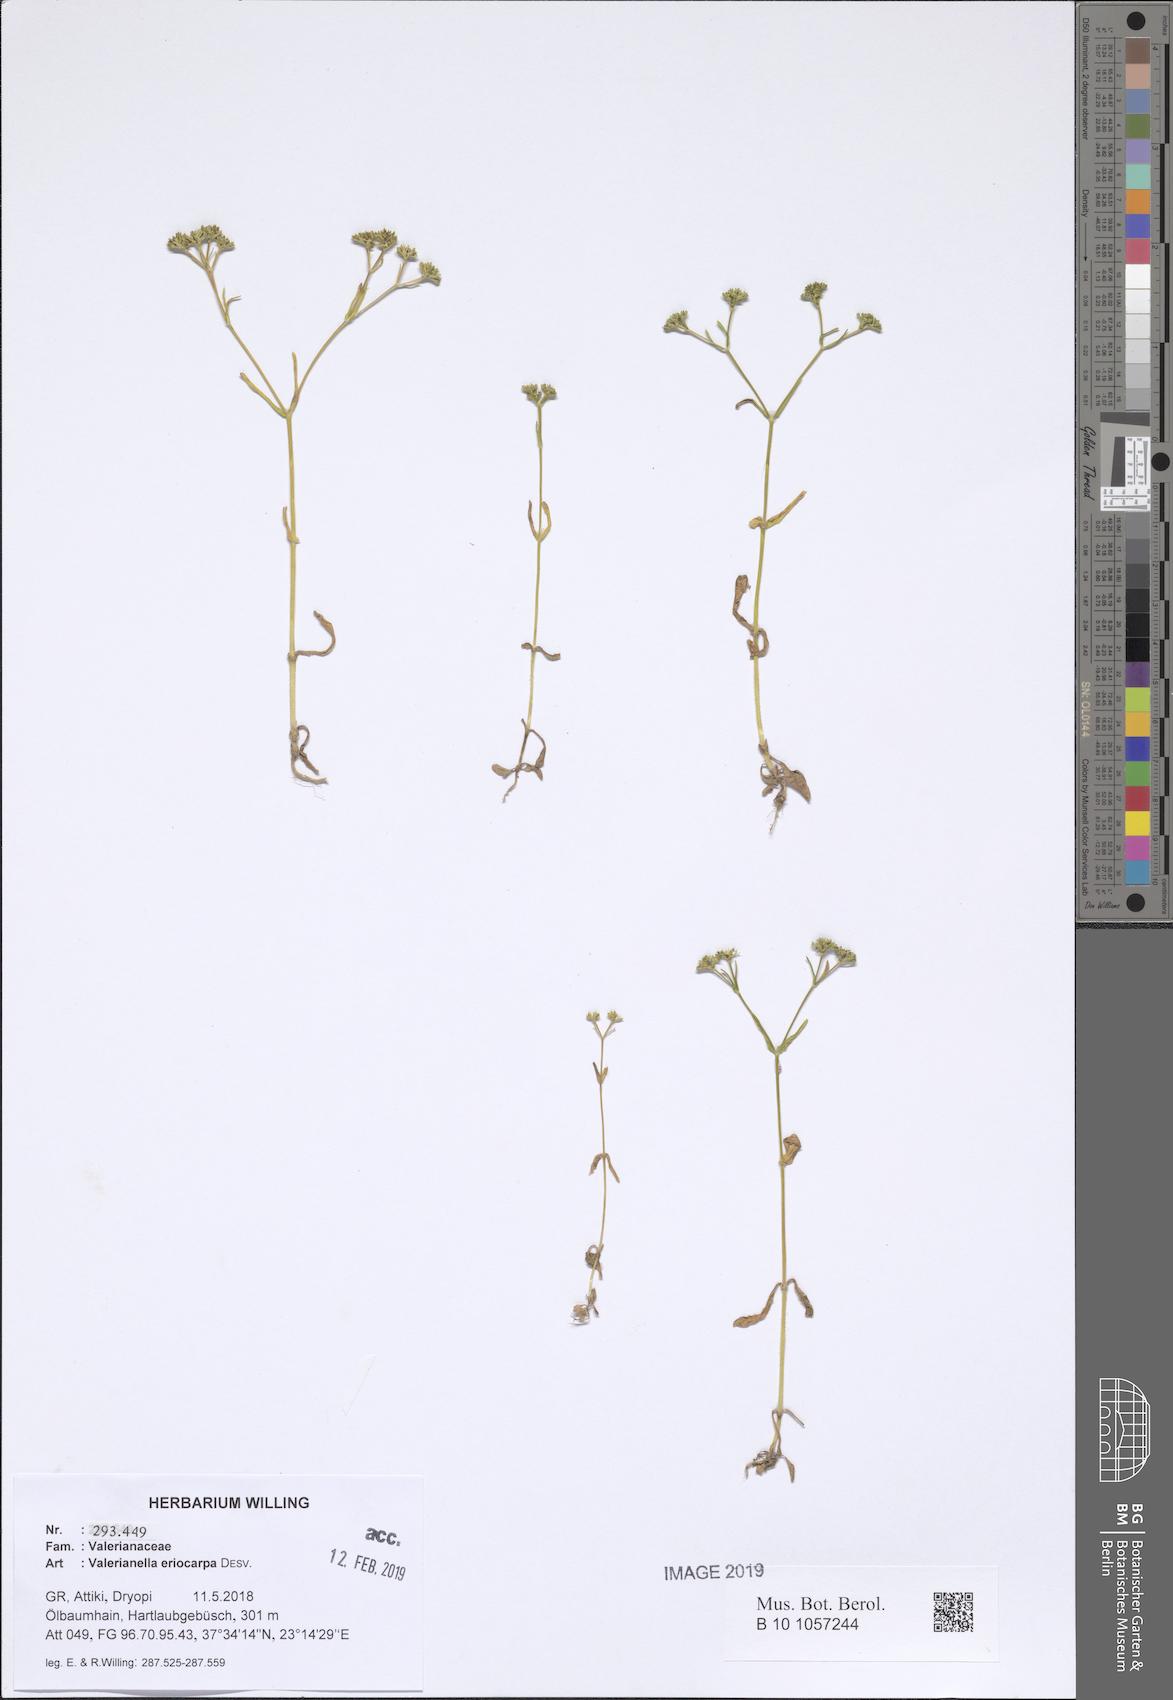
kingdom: Plantae
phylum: Tracheophyta
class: Magnoliopsida
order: Dipsacales
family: Caprifoliaceae
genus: Valerianella
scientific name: Valerianella eriocarpa
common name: Hairy-fruited cornsalad
